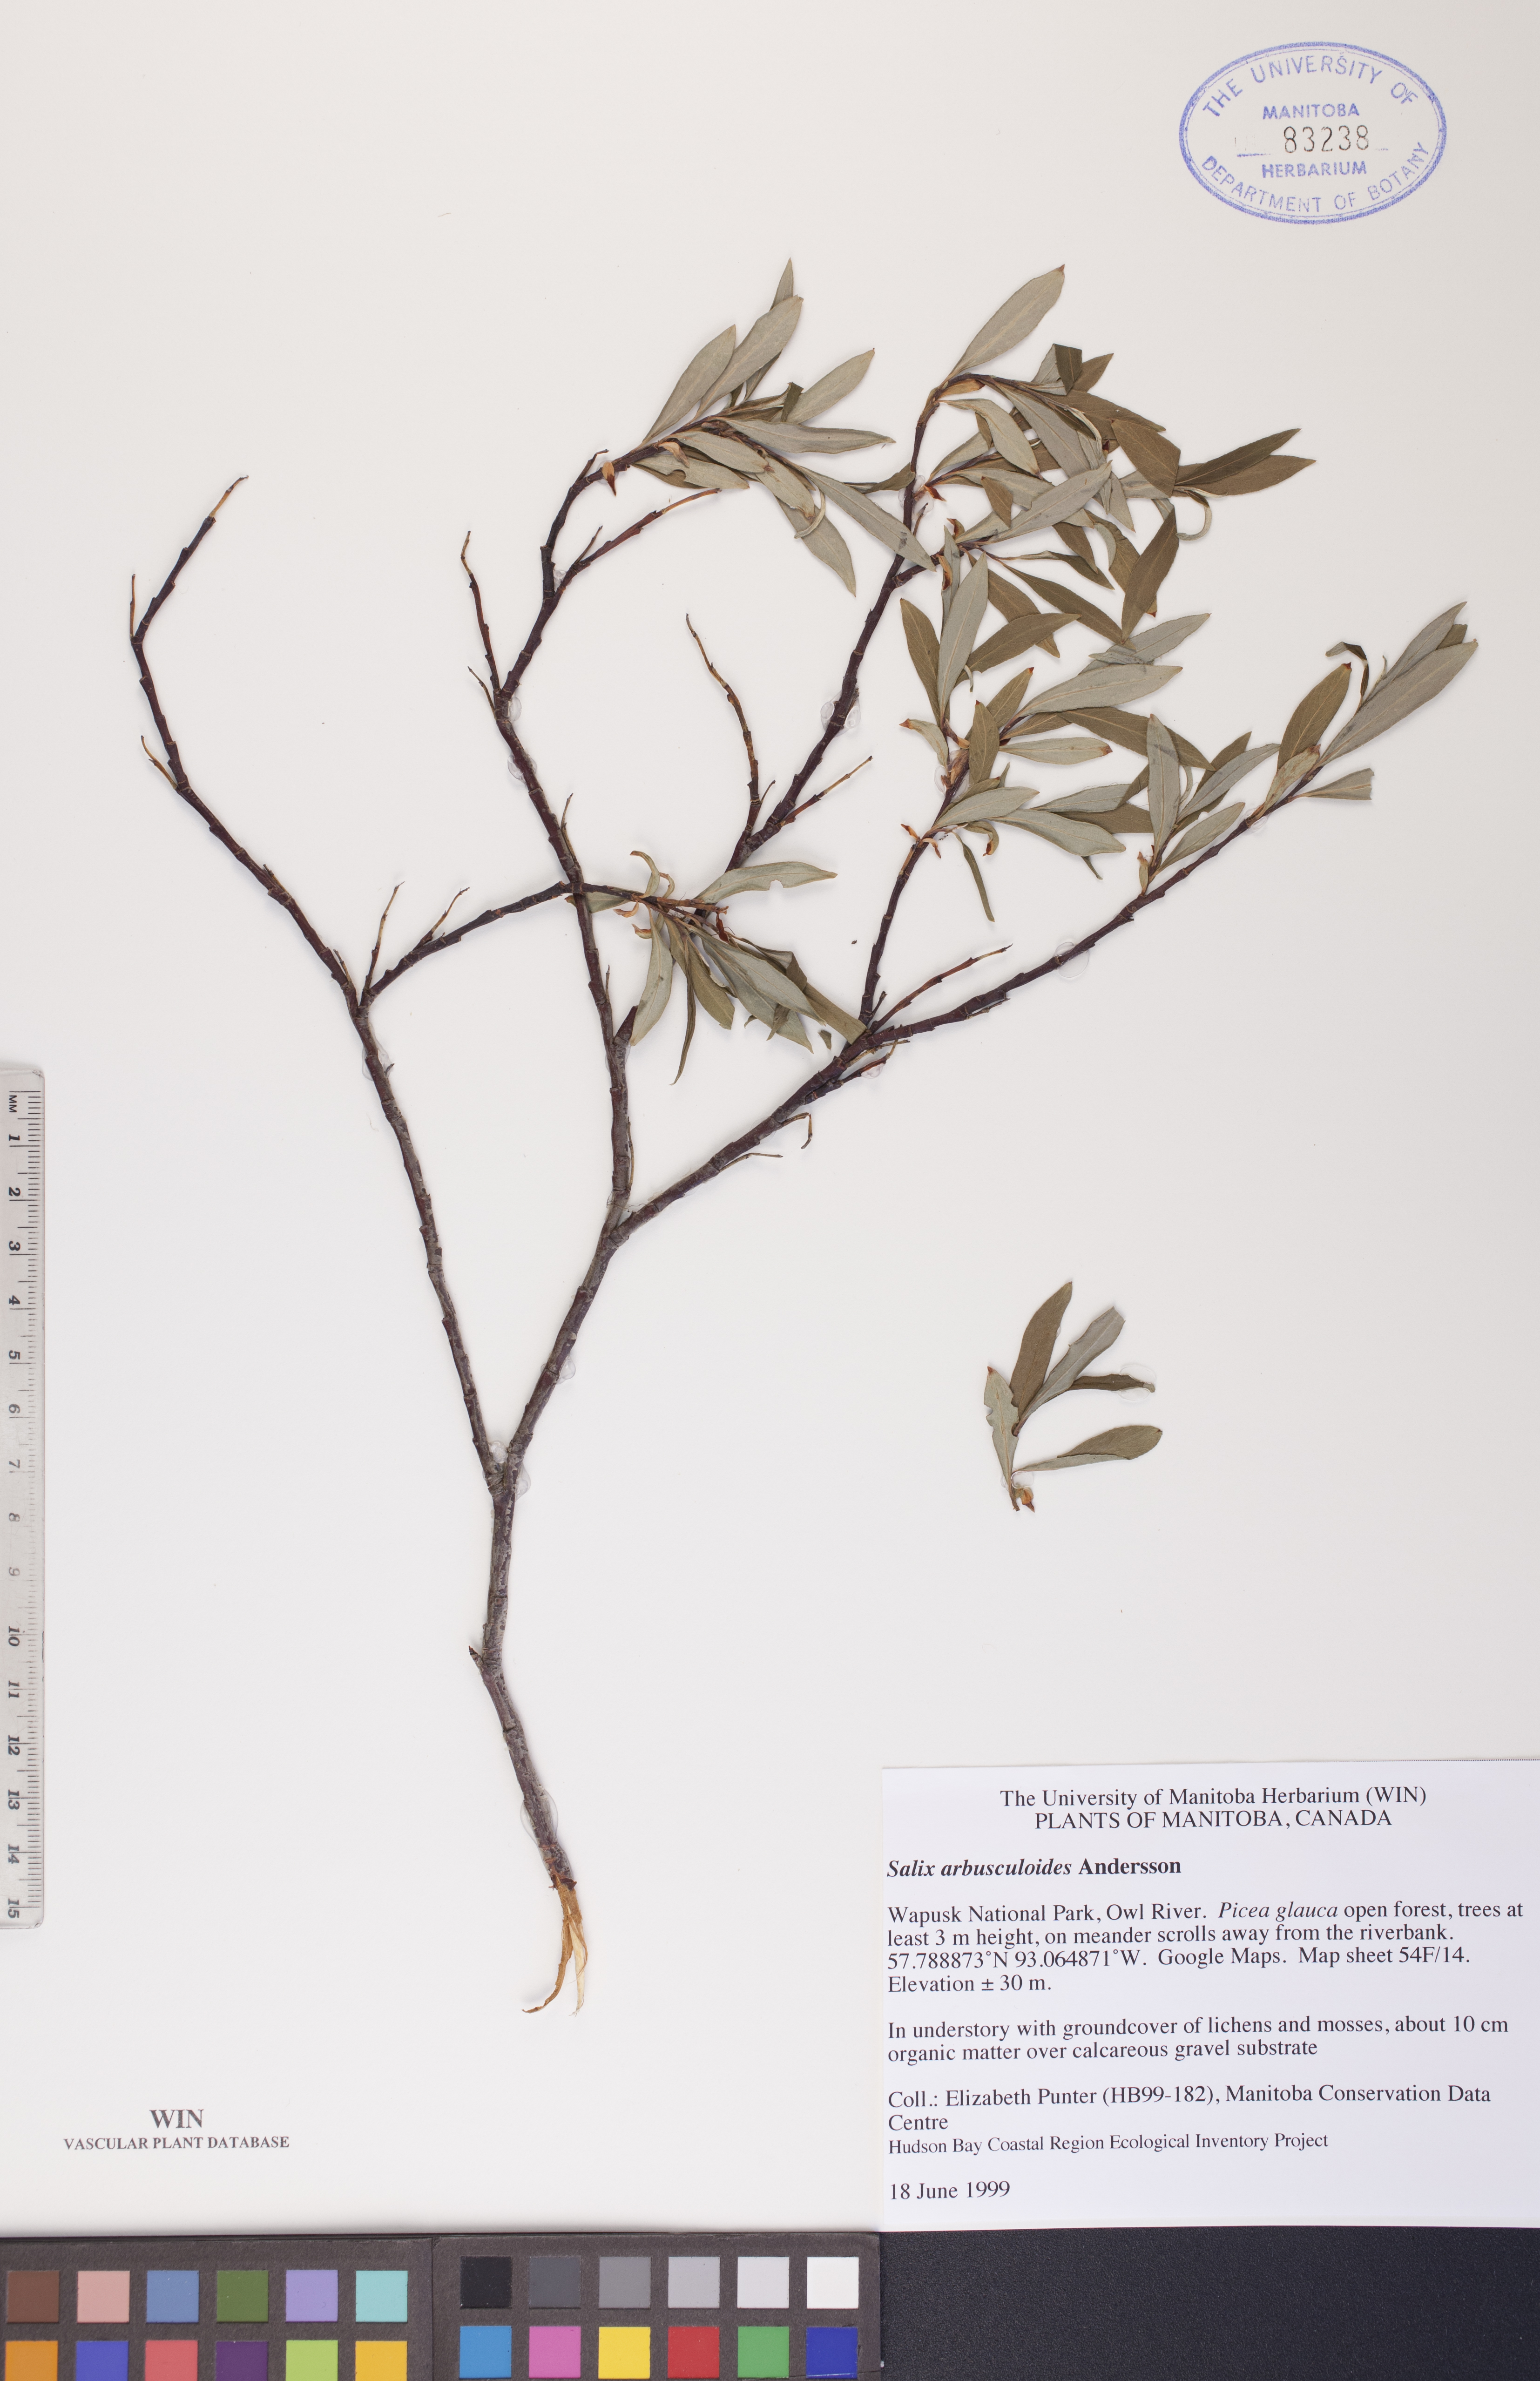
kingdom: Plantae
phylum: Tracheophyta
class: Magnoliopsida
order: Malpighiales
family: Salicaceae
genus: Salix
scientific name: Salix arbusculoides
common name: Little-tree willow
